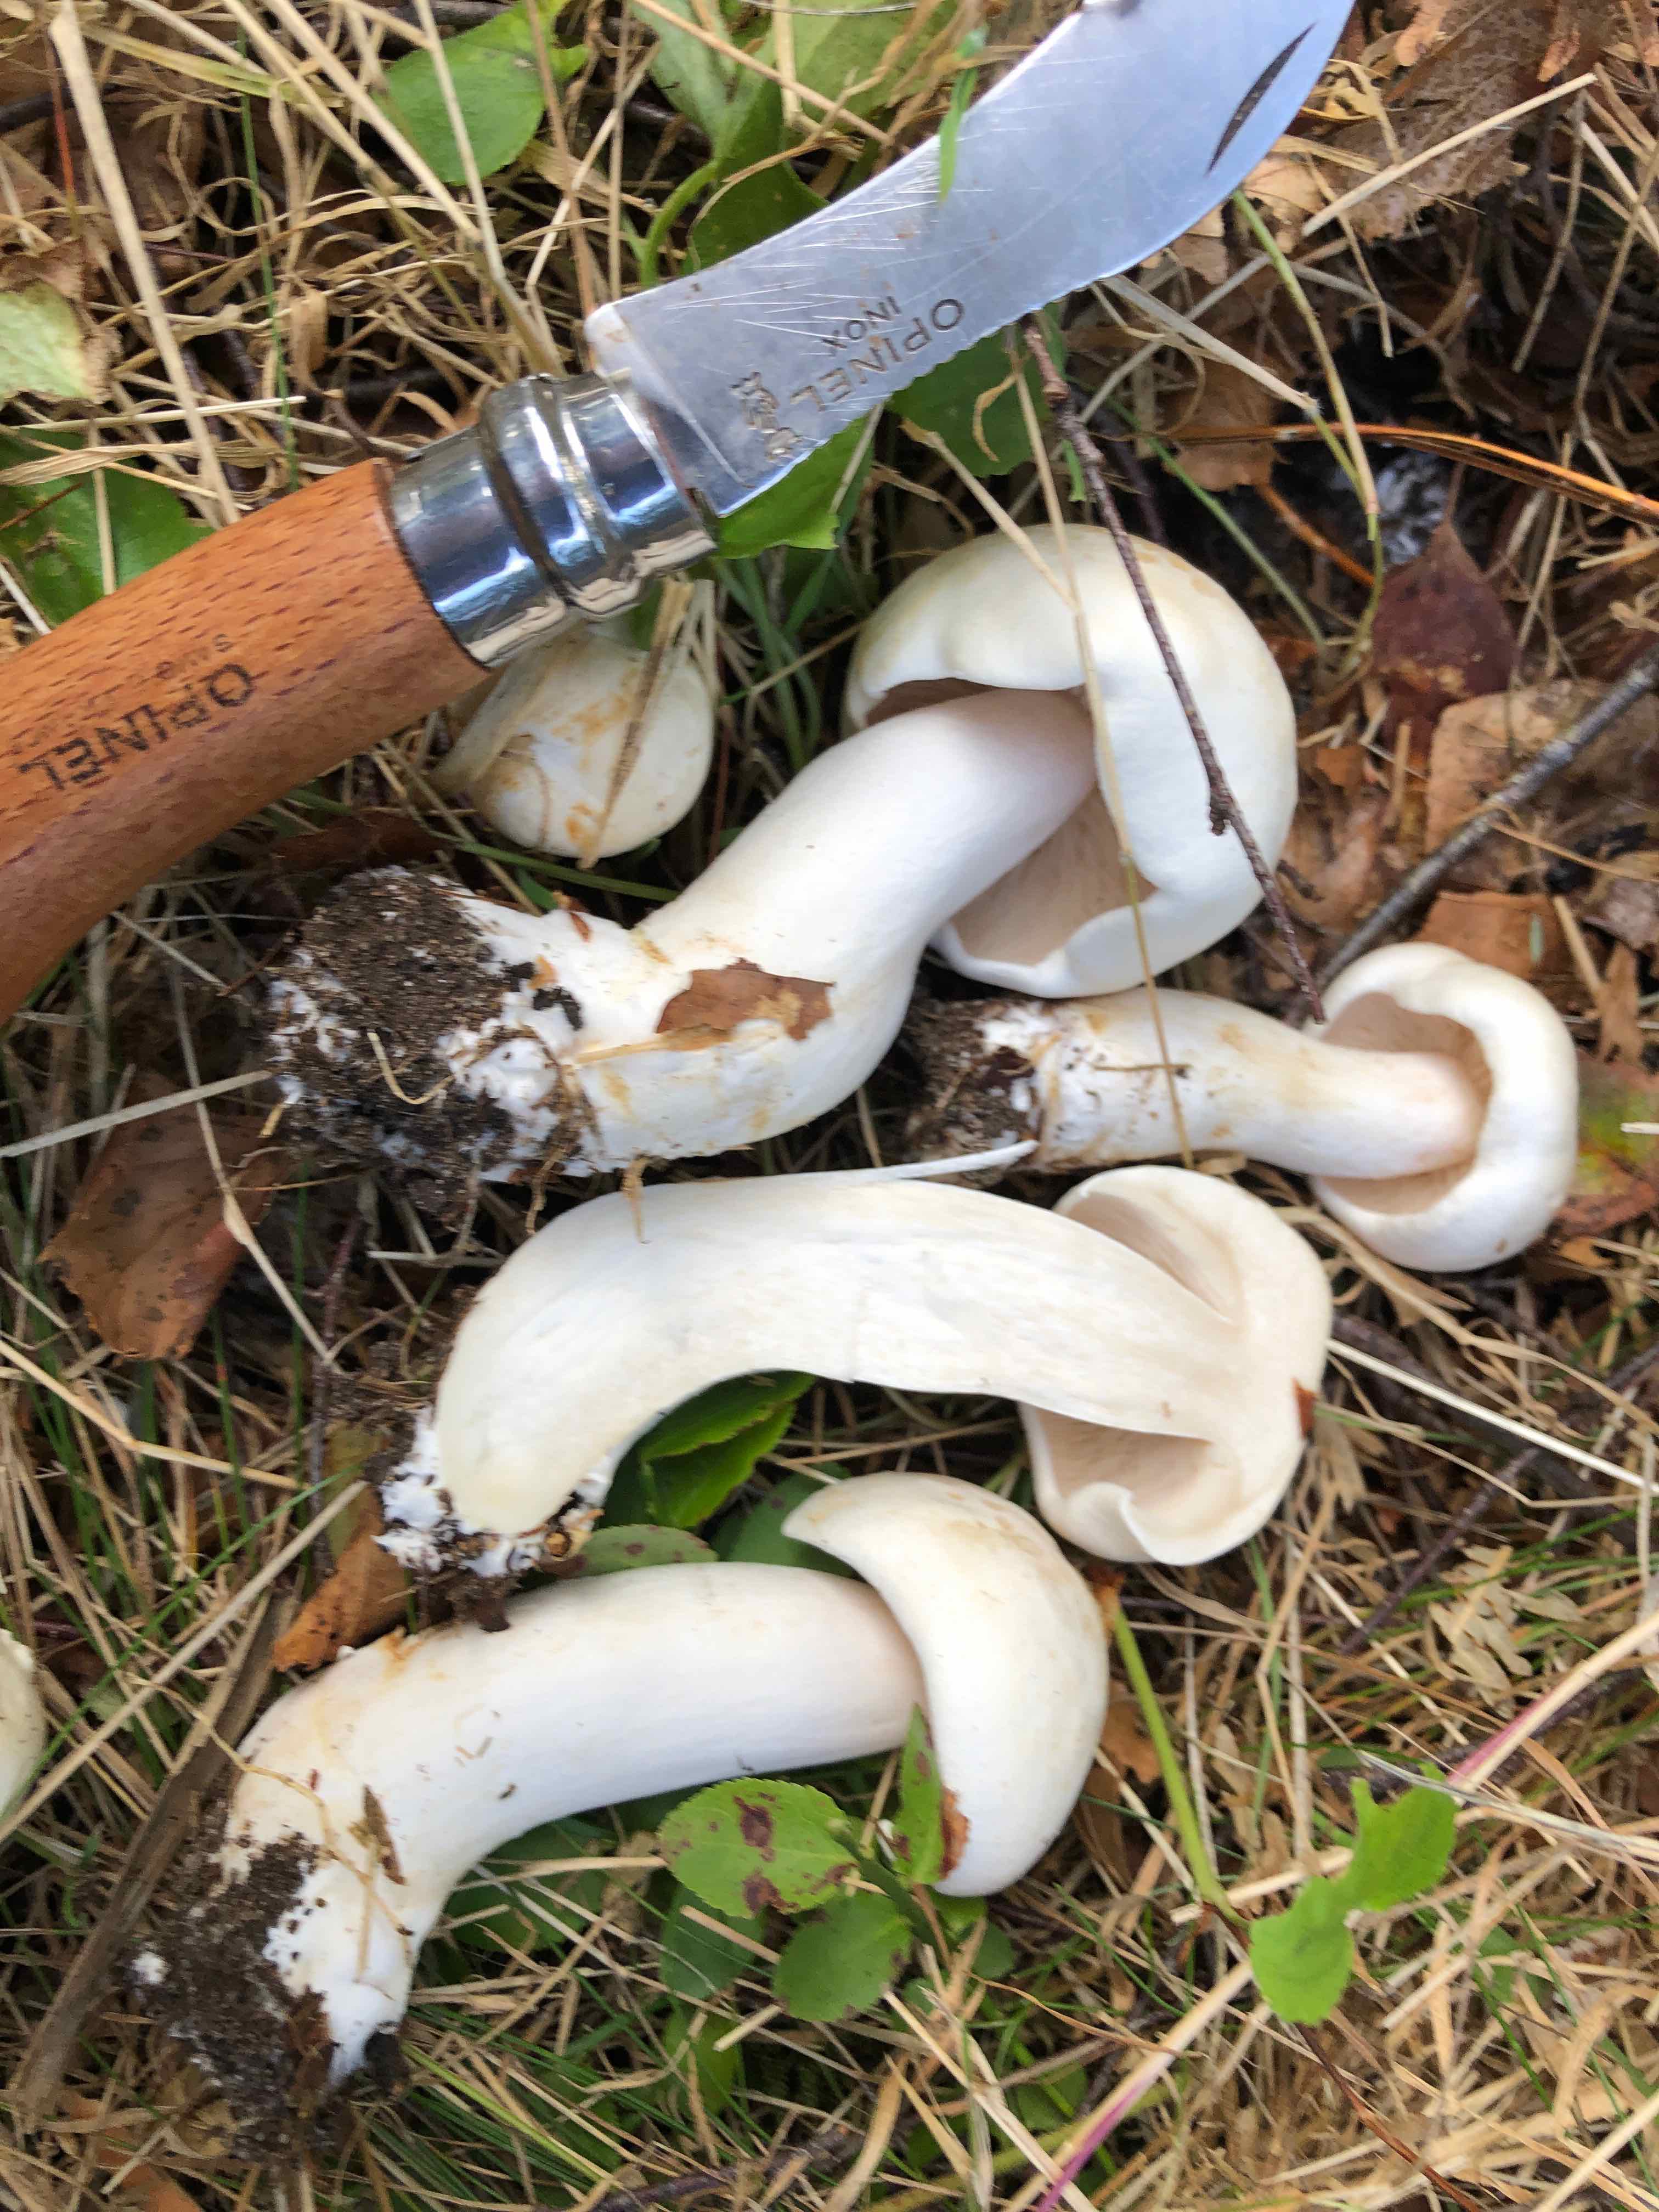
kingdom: Fungi
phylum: Basidiomycota
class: Agaricomycetes
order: Agaricales
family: Tricholomataceae
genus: Tricholoma
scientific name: Tricholoma stiparophyllum
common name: hvid ridderhat
